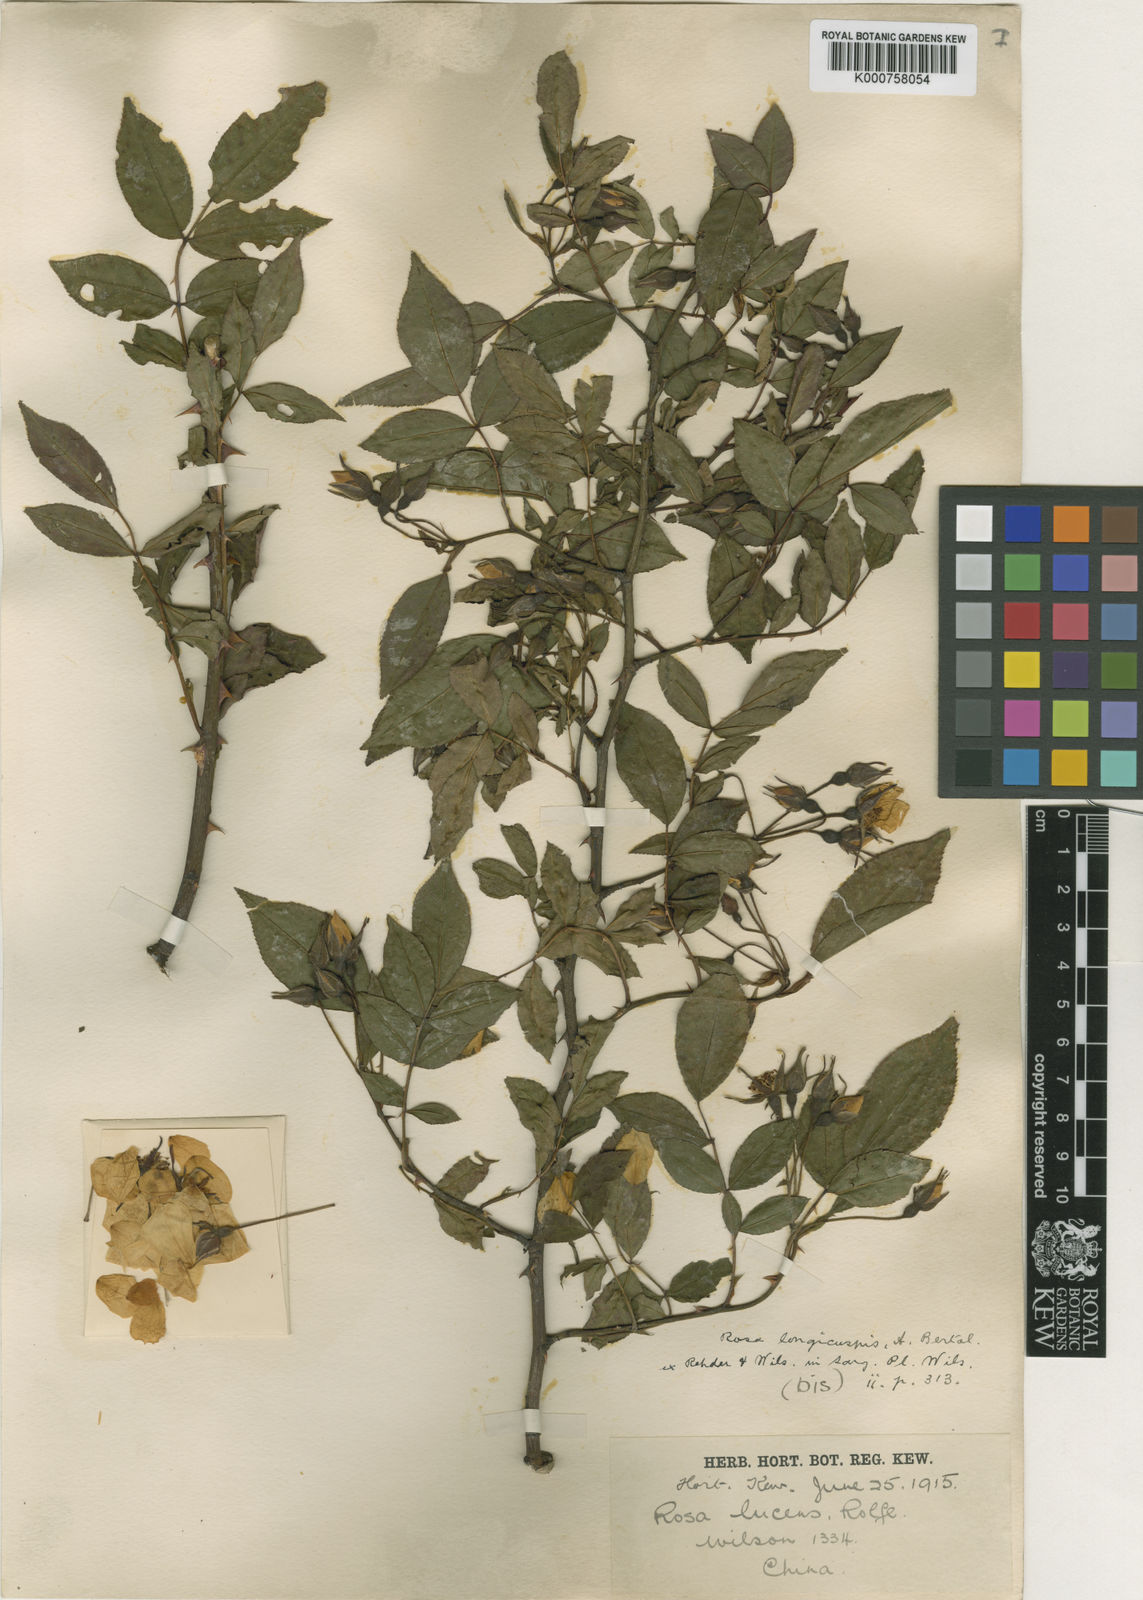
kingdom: Plantae
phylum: Tracheophyta
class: Magnoliopsida
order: Rosales
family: Rosaceae
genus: Rosa
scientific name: Rosa longicuspis
